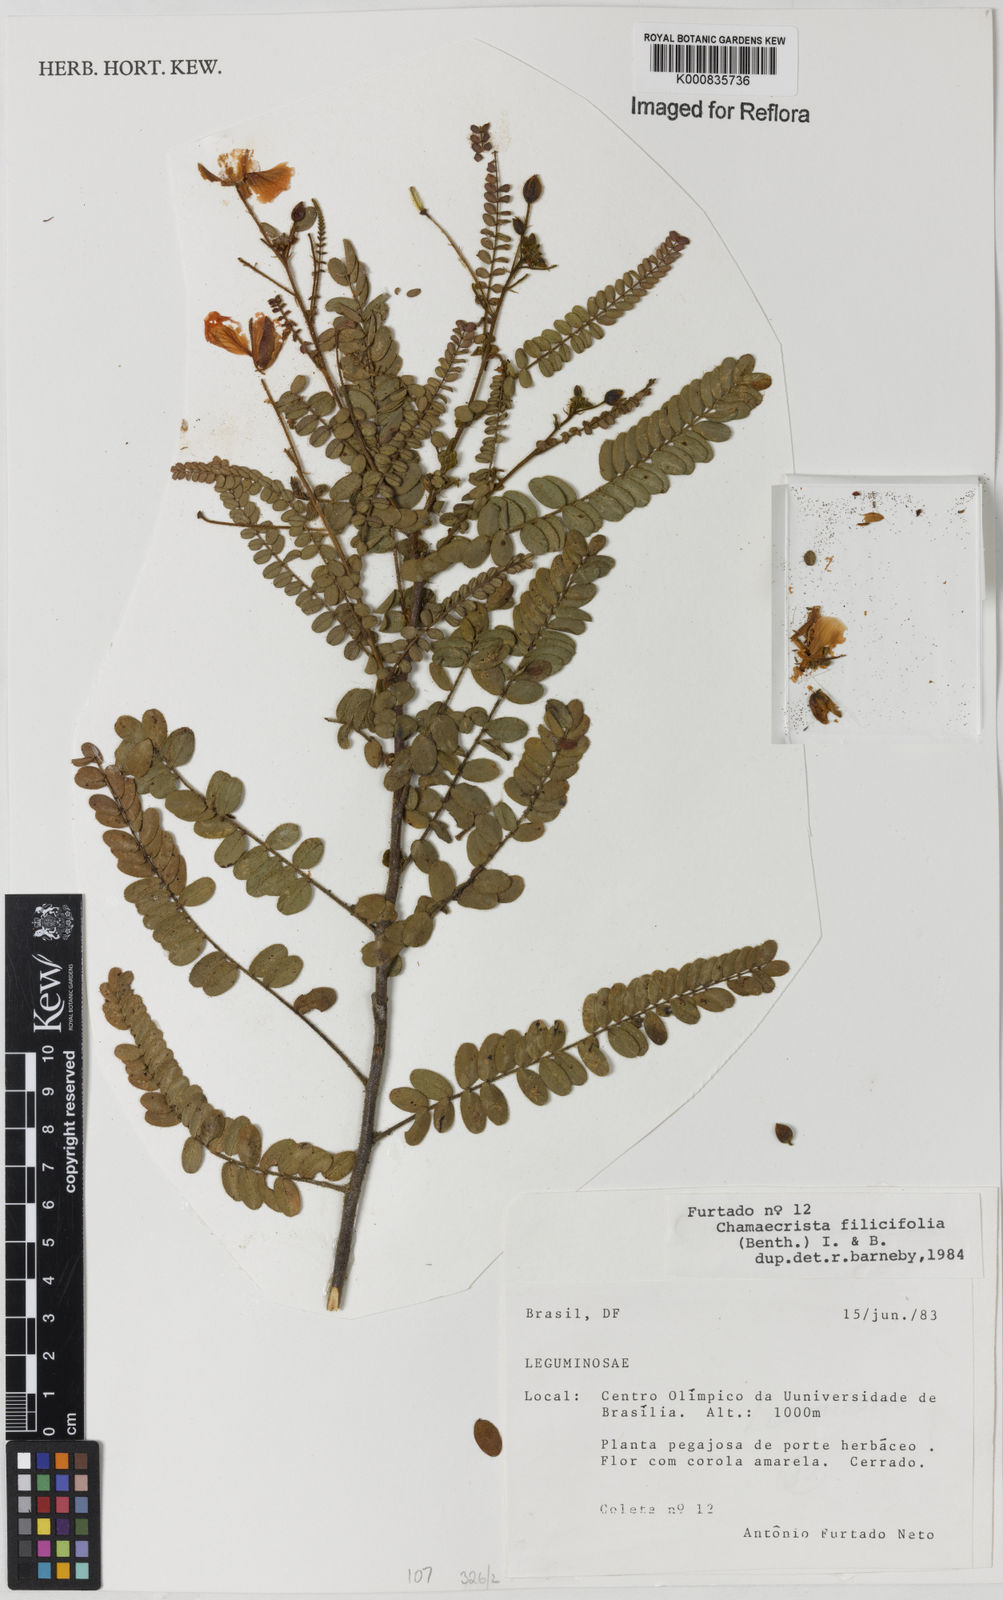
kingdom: Plantae
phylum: Tracheophyta
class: Magnoliopsida
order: Fabales
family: Fabaceae
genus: Chamaecrista
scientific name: Chamaecrista filicifolia
